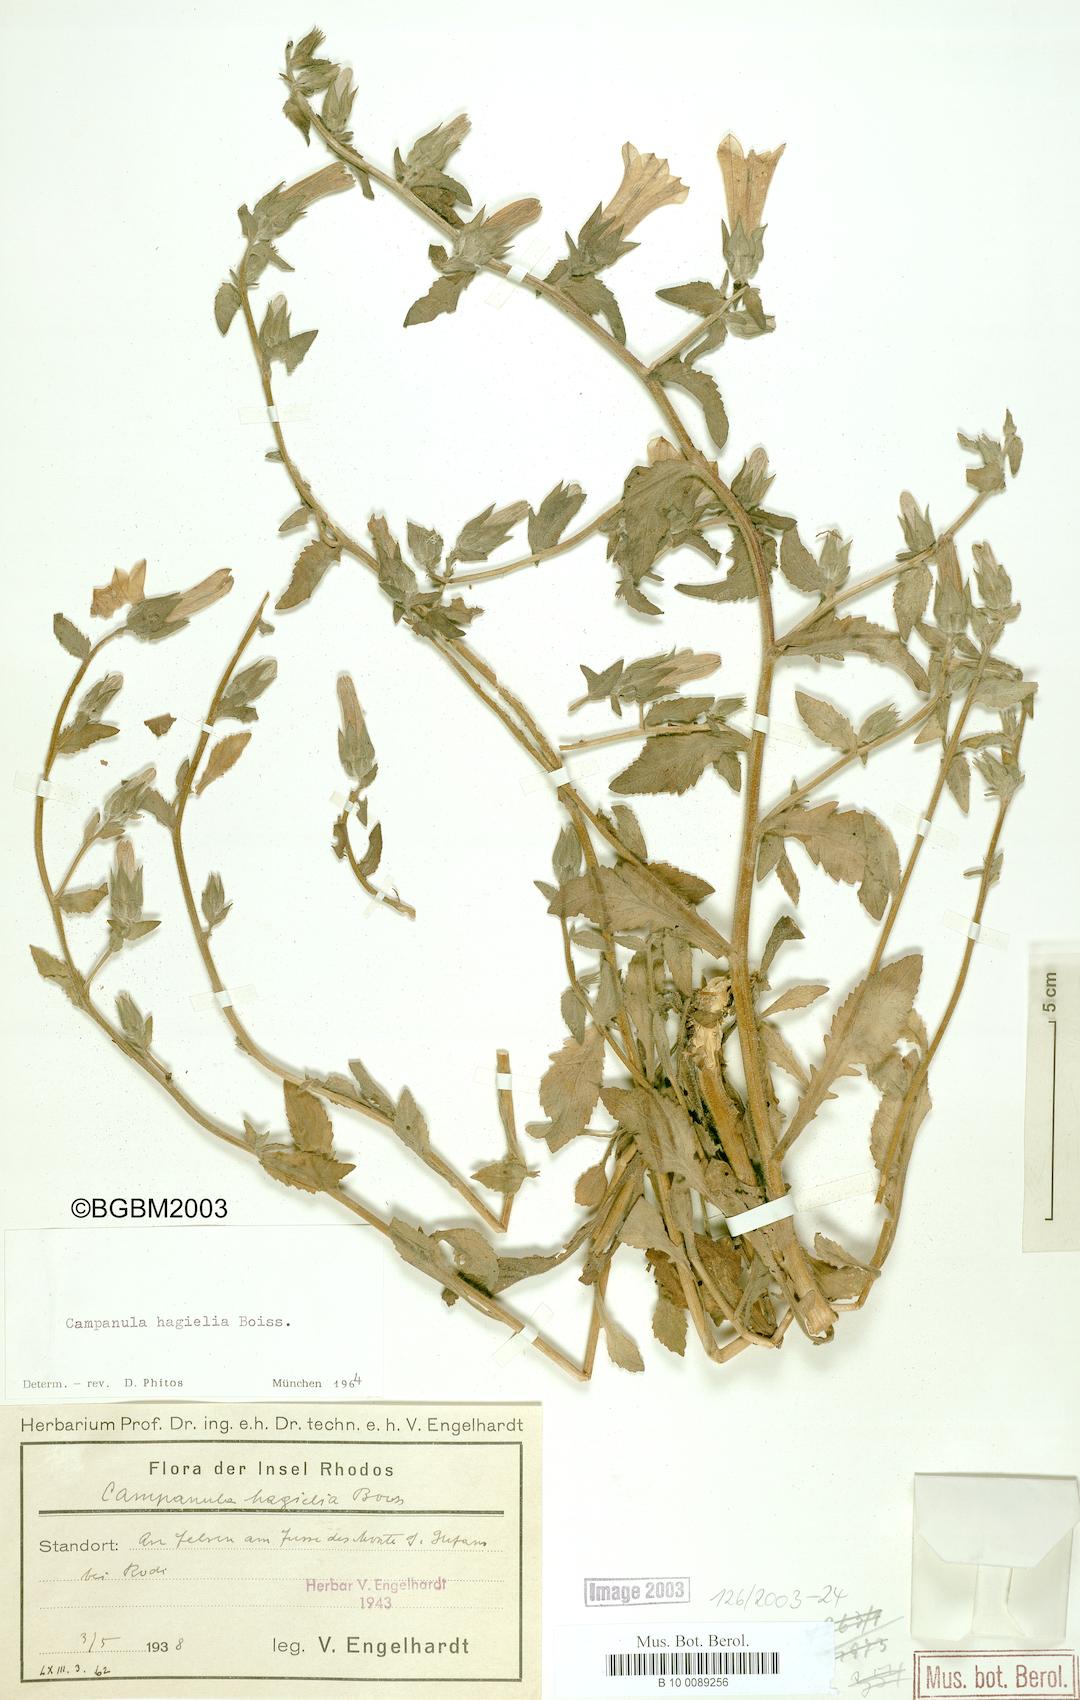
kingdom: Plantae
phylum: Tracheophyta
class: Magnoliopsida
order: Asterales
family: Campanulaceae
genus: Campanula
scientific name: Campanula hagielia
